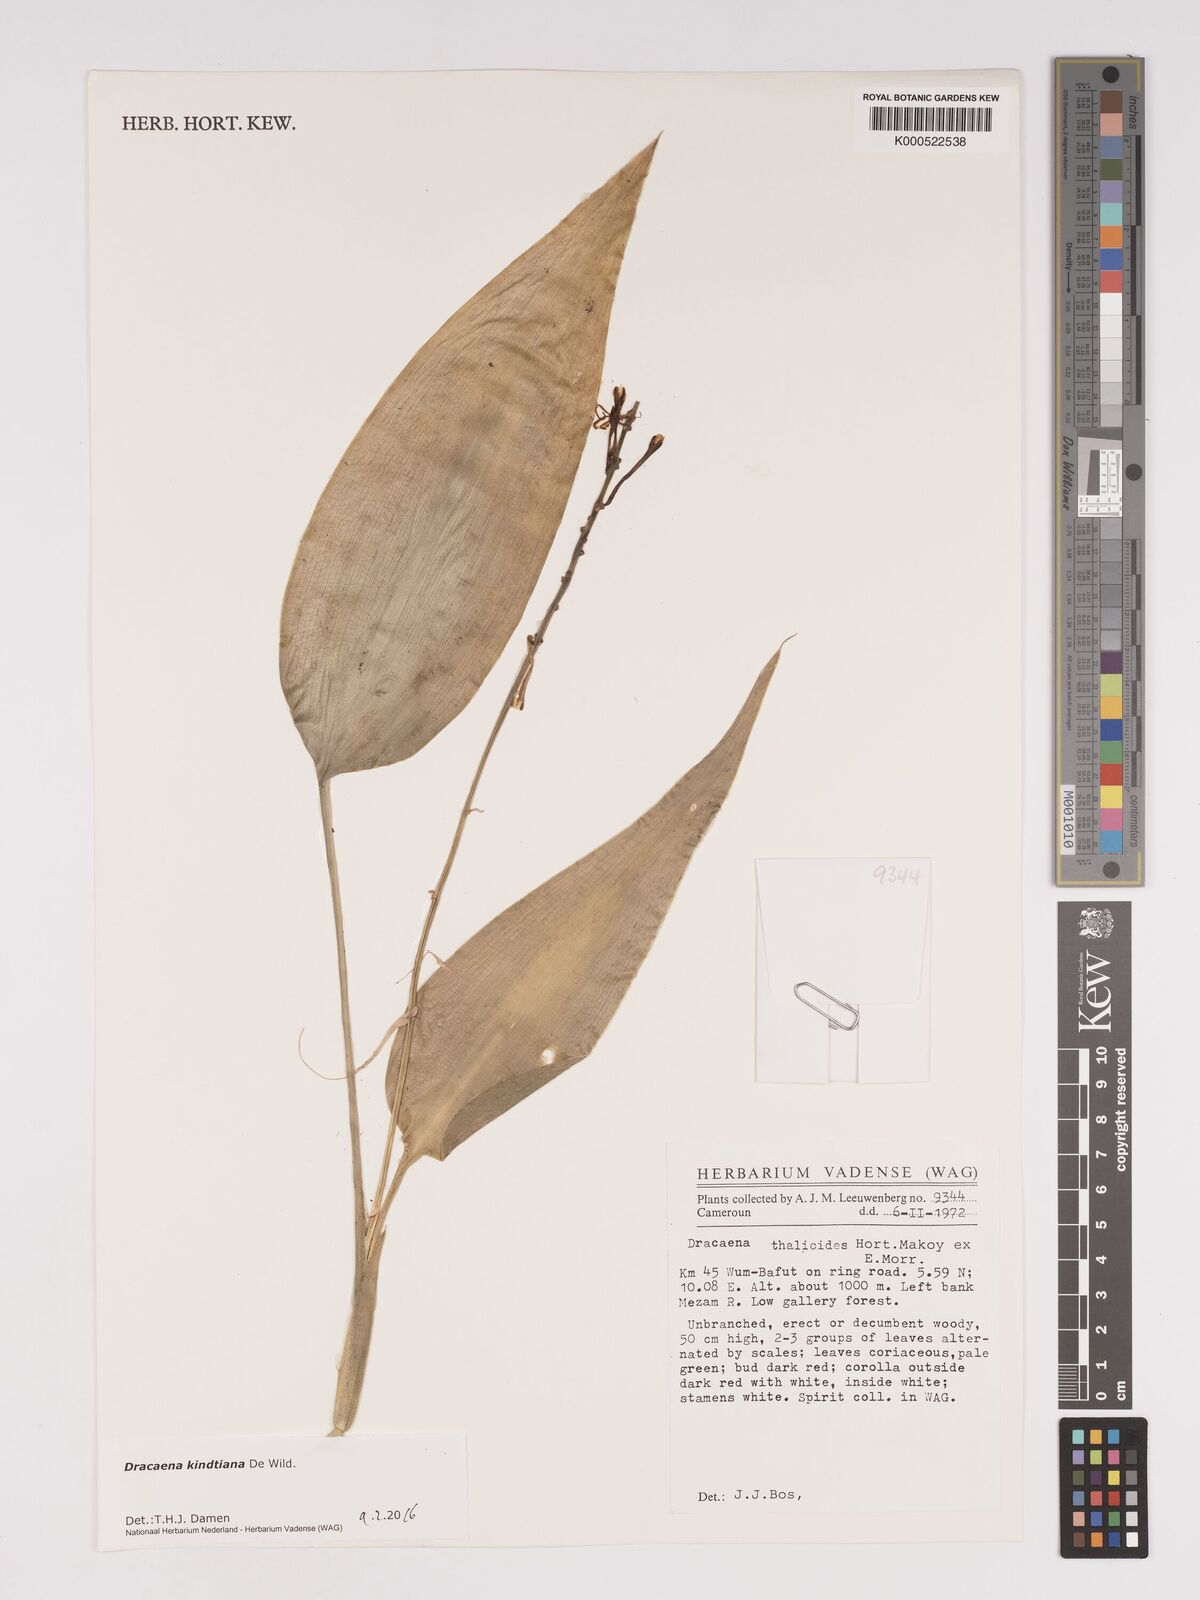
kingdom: Plantae
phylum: Tracheophyta
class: Liliopsida
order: Asparagales
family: Asparagaceae
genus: Dracaena
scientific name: Dracaena kindtiana
